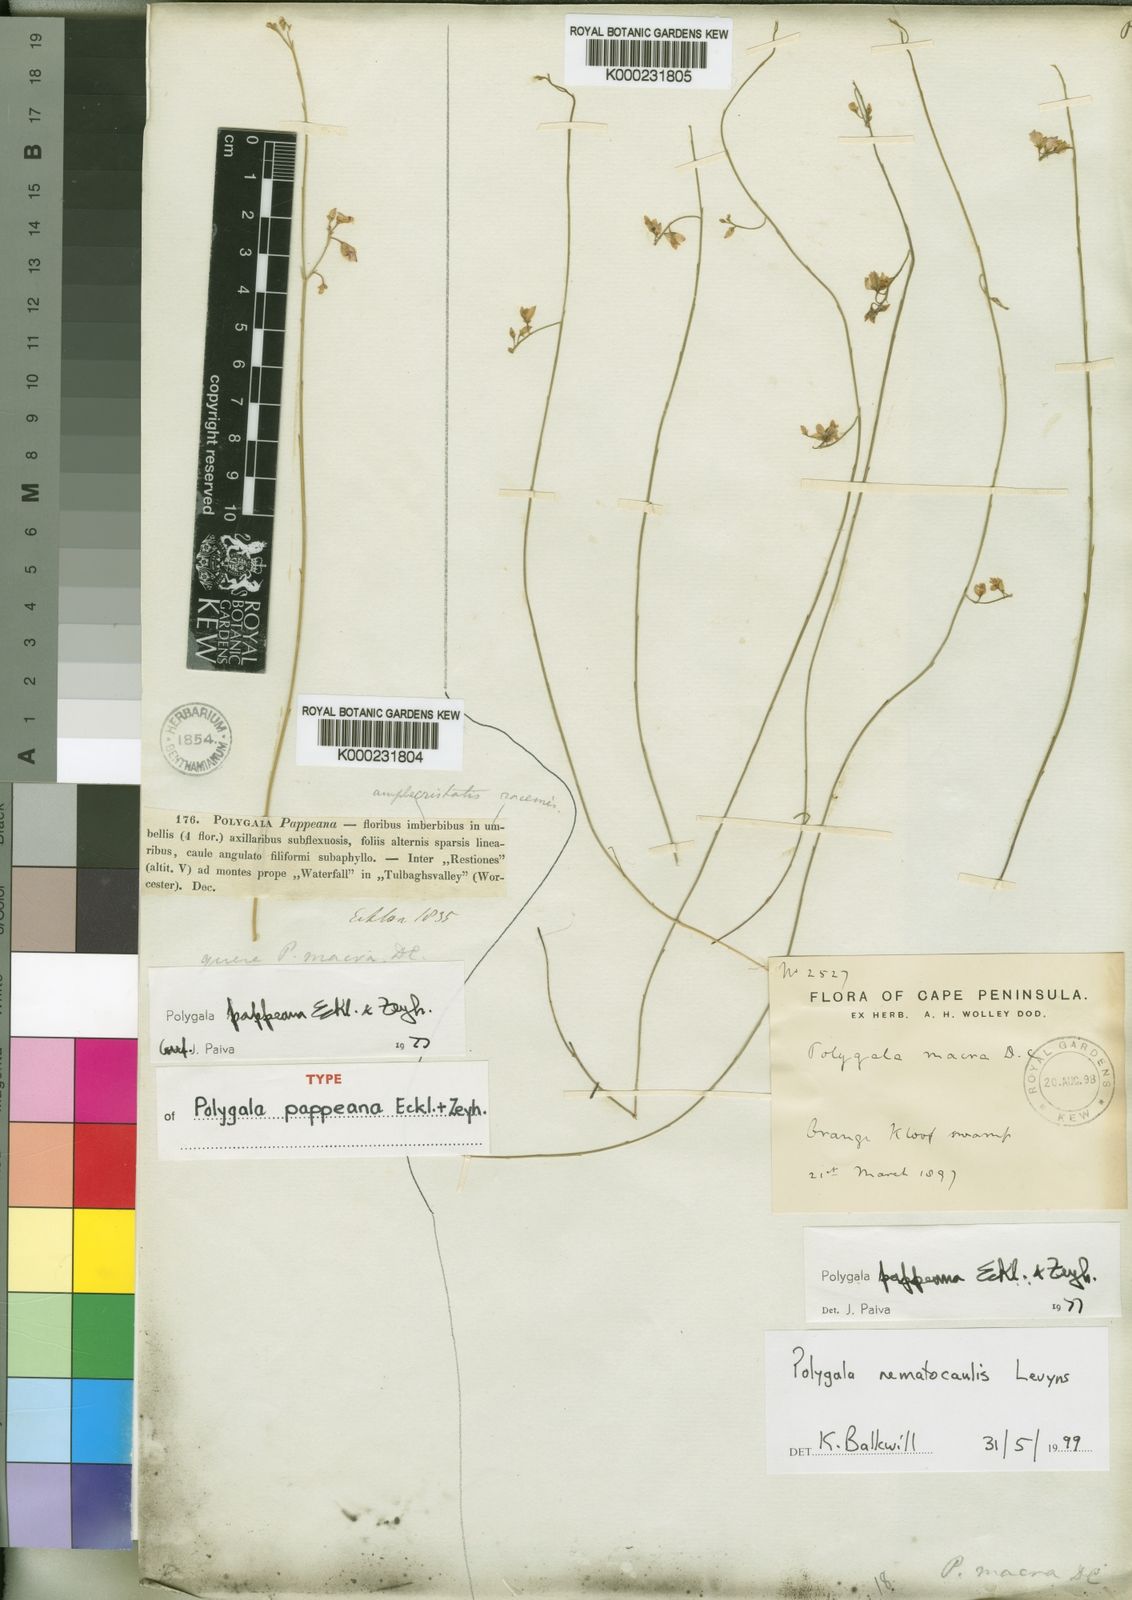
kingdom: Plantae
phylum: Tracheophyta
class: Magnoliopsida
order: Fabales
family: Polygalaceae
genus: Polygala
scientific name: Polygala pappeana
